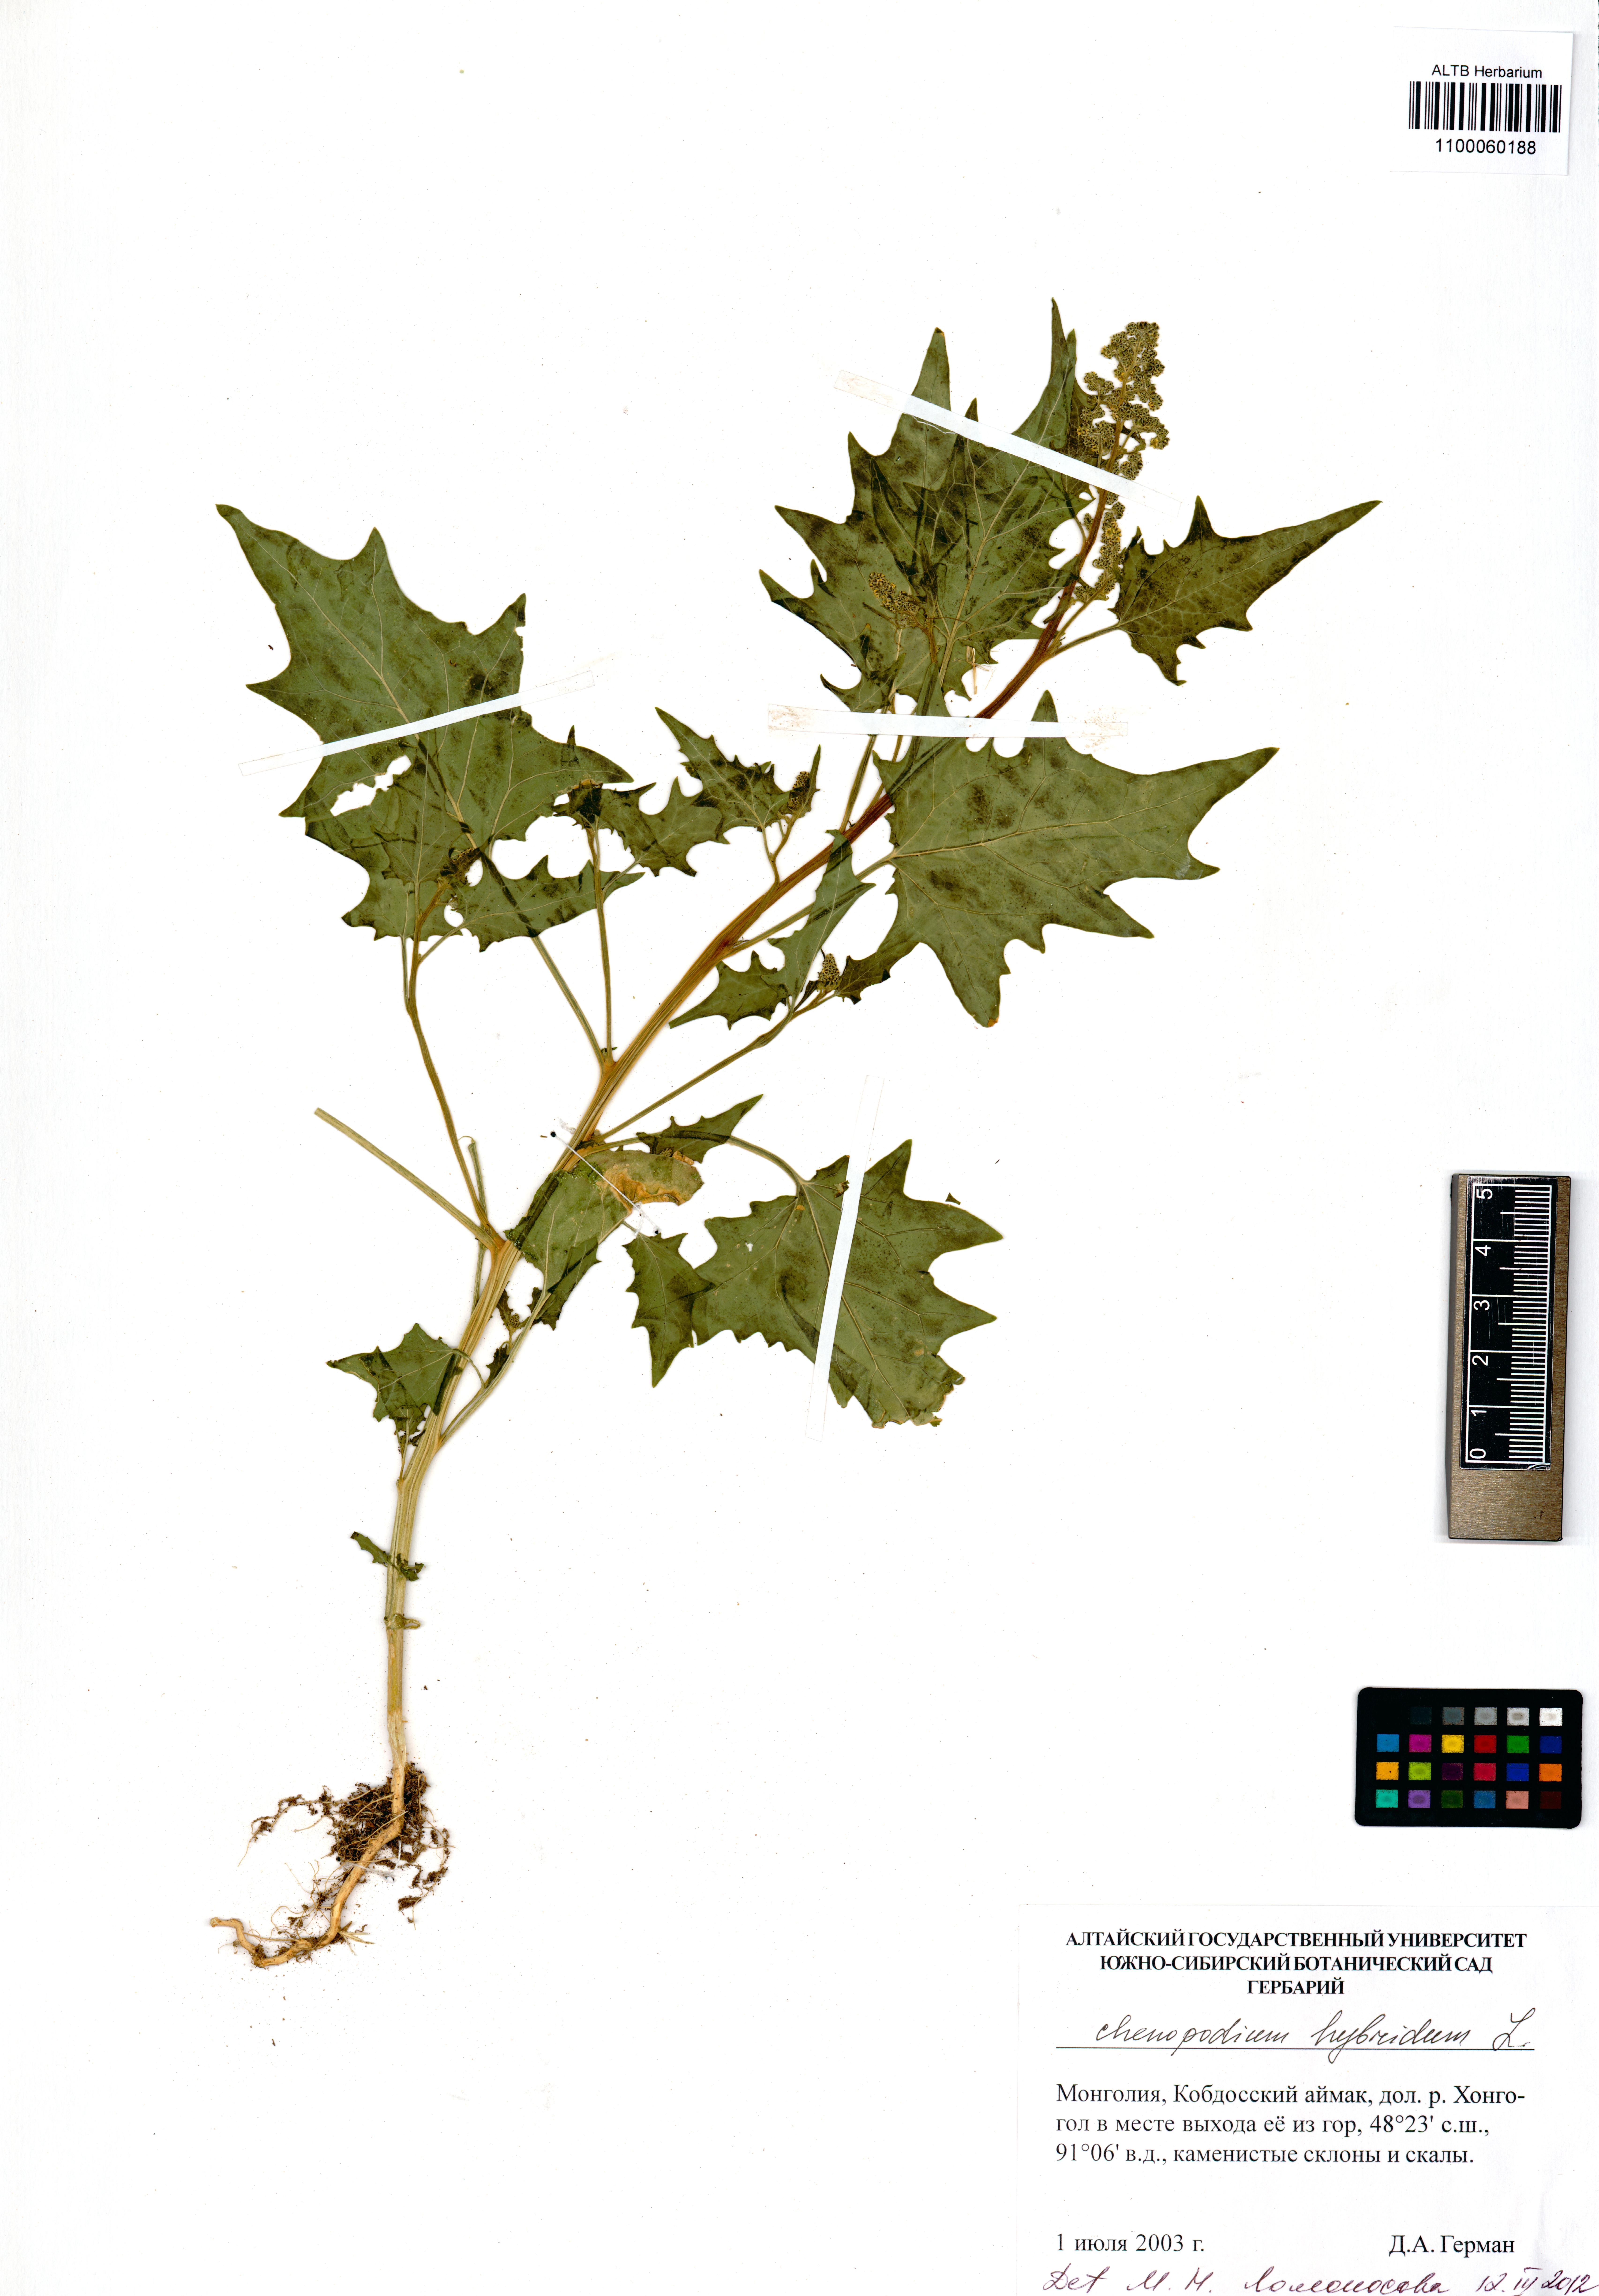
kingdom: Plantae
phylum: Tracheophyta
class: Magnoliopsida
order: Caryophyllales
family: Amaranthaceae
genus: Chenopodiastrum
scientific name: Chenopodiastrum hybridum
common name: Mapleleaf goosefoot
